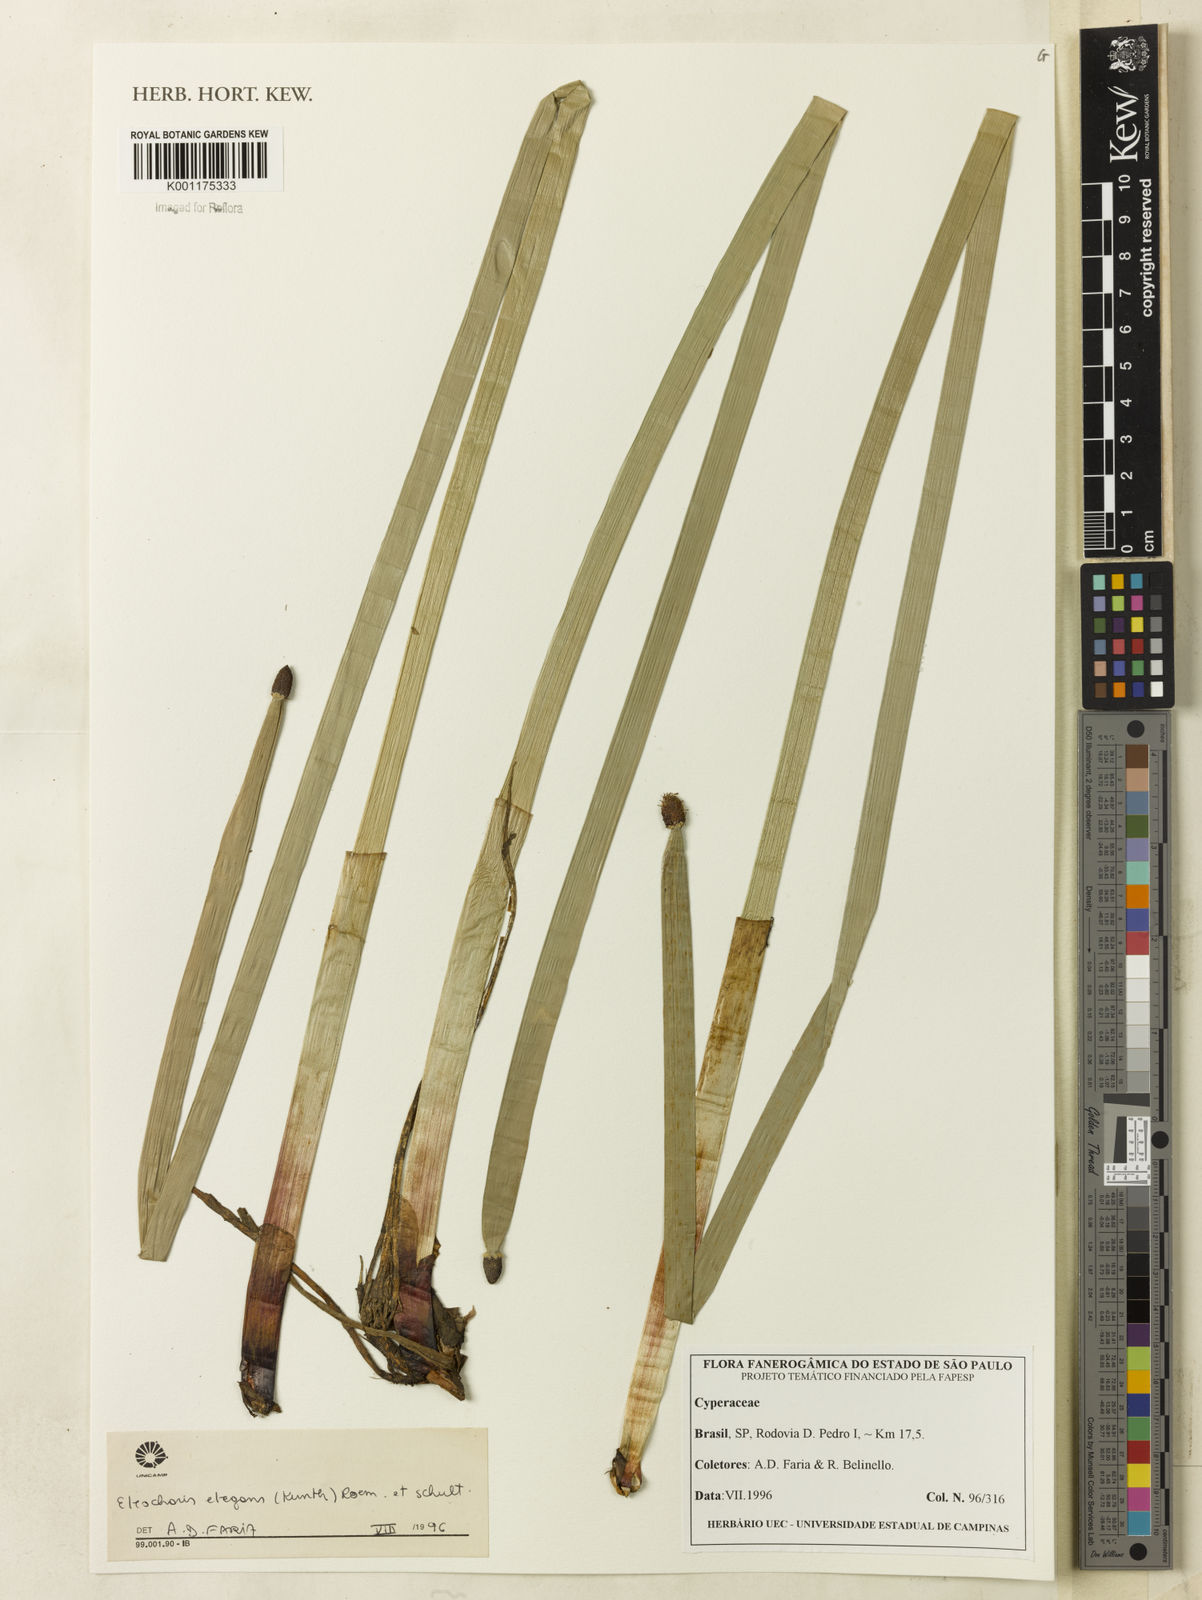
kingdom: Plantae
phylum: Tracheophyta
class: Liliopsida
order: Poales
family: Cyperaceae
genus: Eleocharis
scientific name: Eleocharis elegans
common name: Elegant spike-rush
